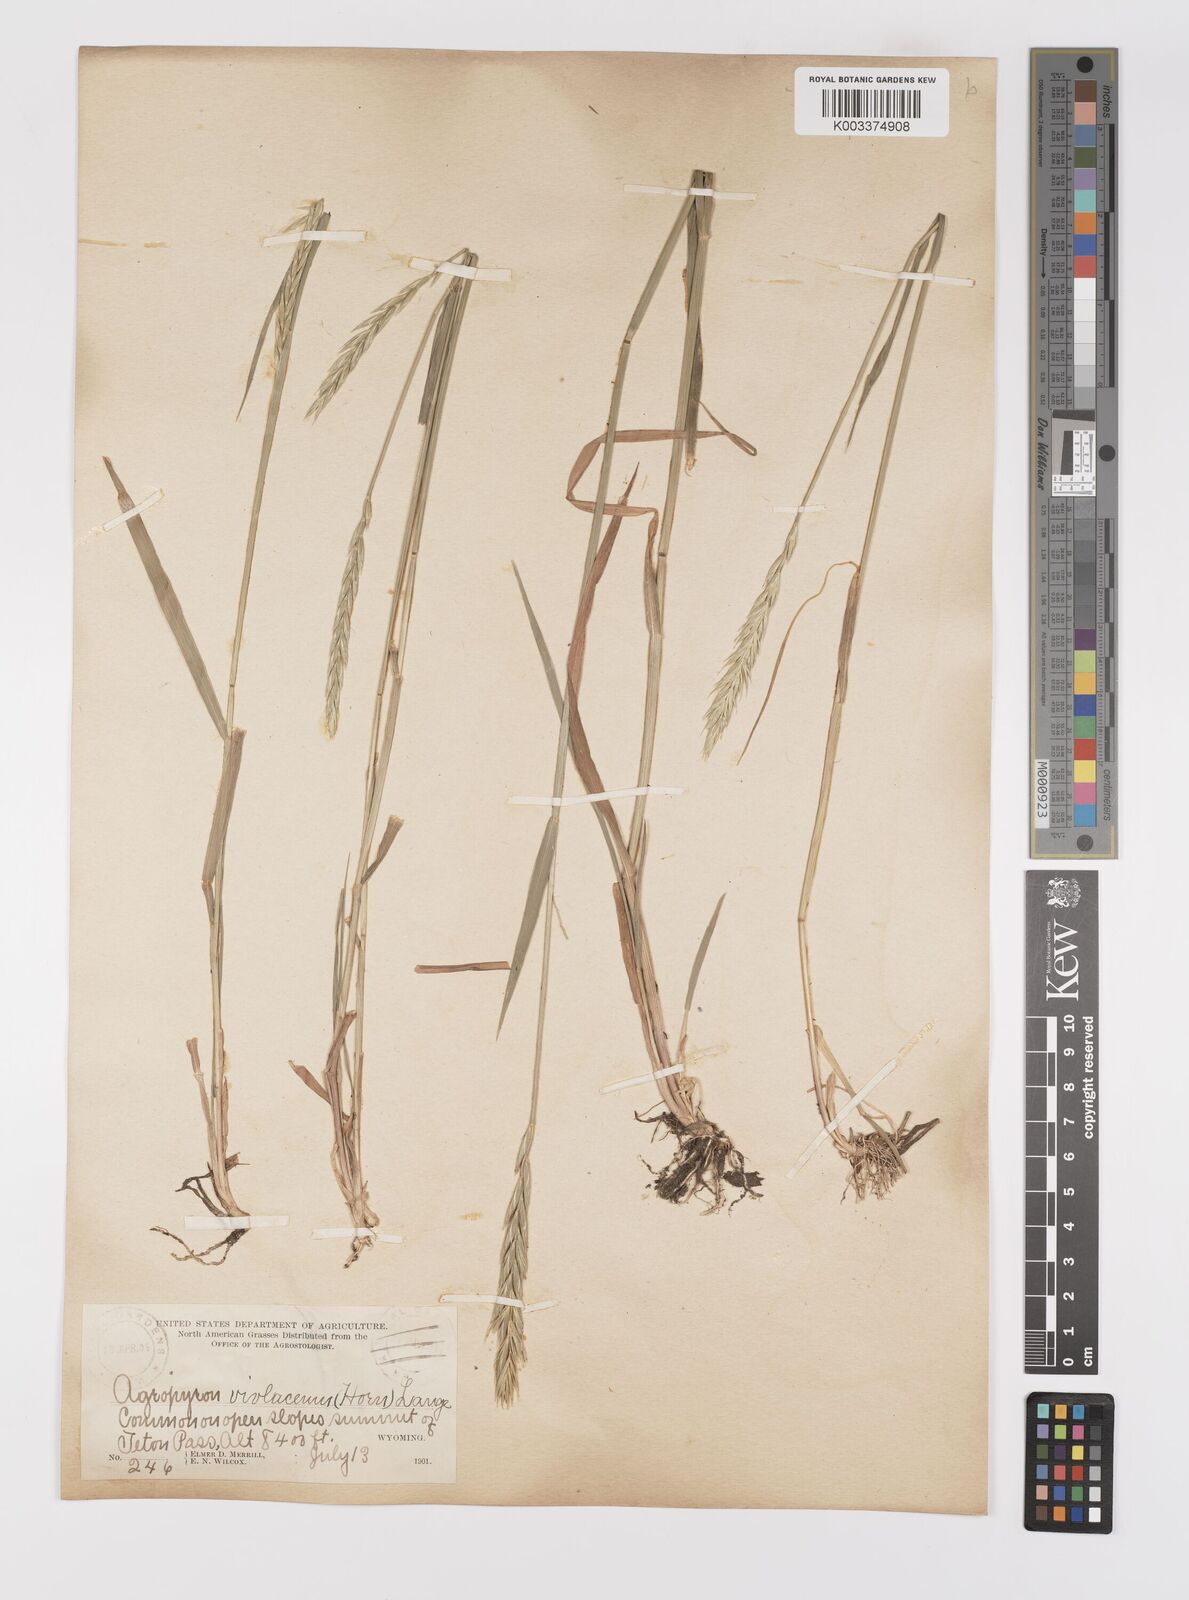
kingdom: Plantae
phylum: Tracheophyta
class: Liliopsida
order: Poales
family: Poaceae
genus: Elymus
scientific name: Elymus violaceus
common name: Arctic wheatgrass
